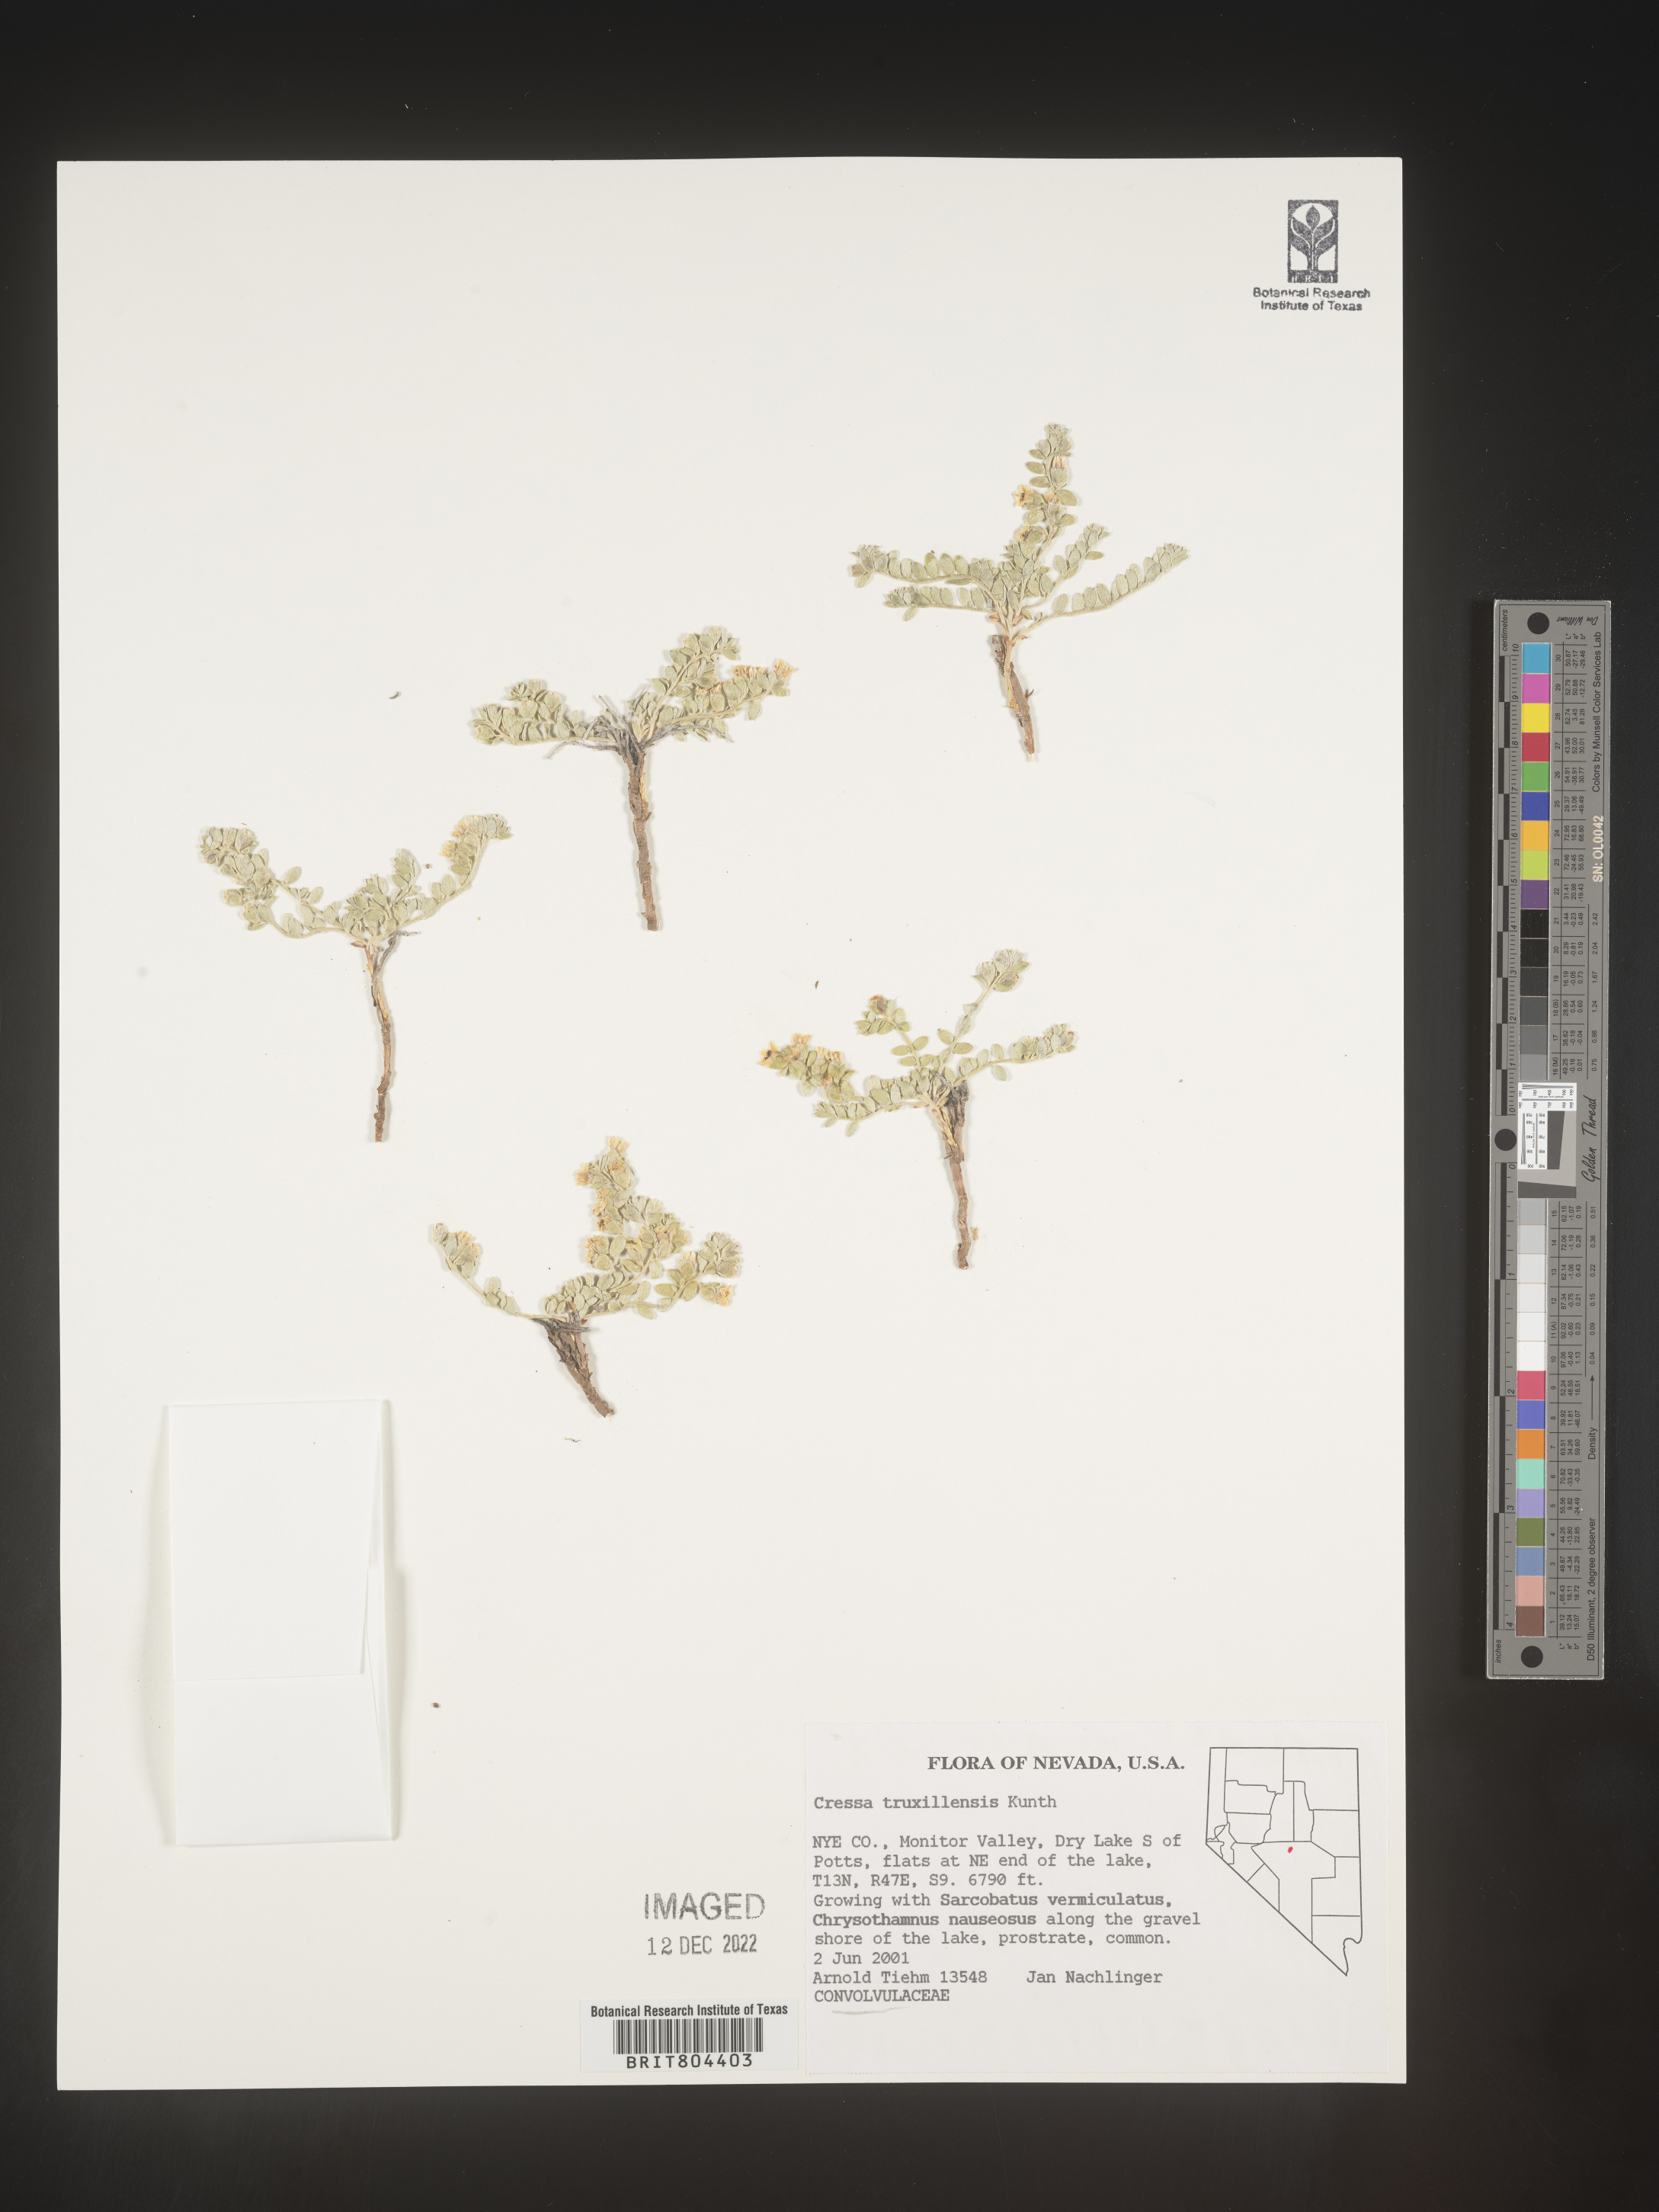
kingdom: Plantae
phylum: Tracheophyta
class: Magnoliopsida
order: Solanales
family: Convolvulaceae
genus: Cressa
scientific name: Cressa
